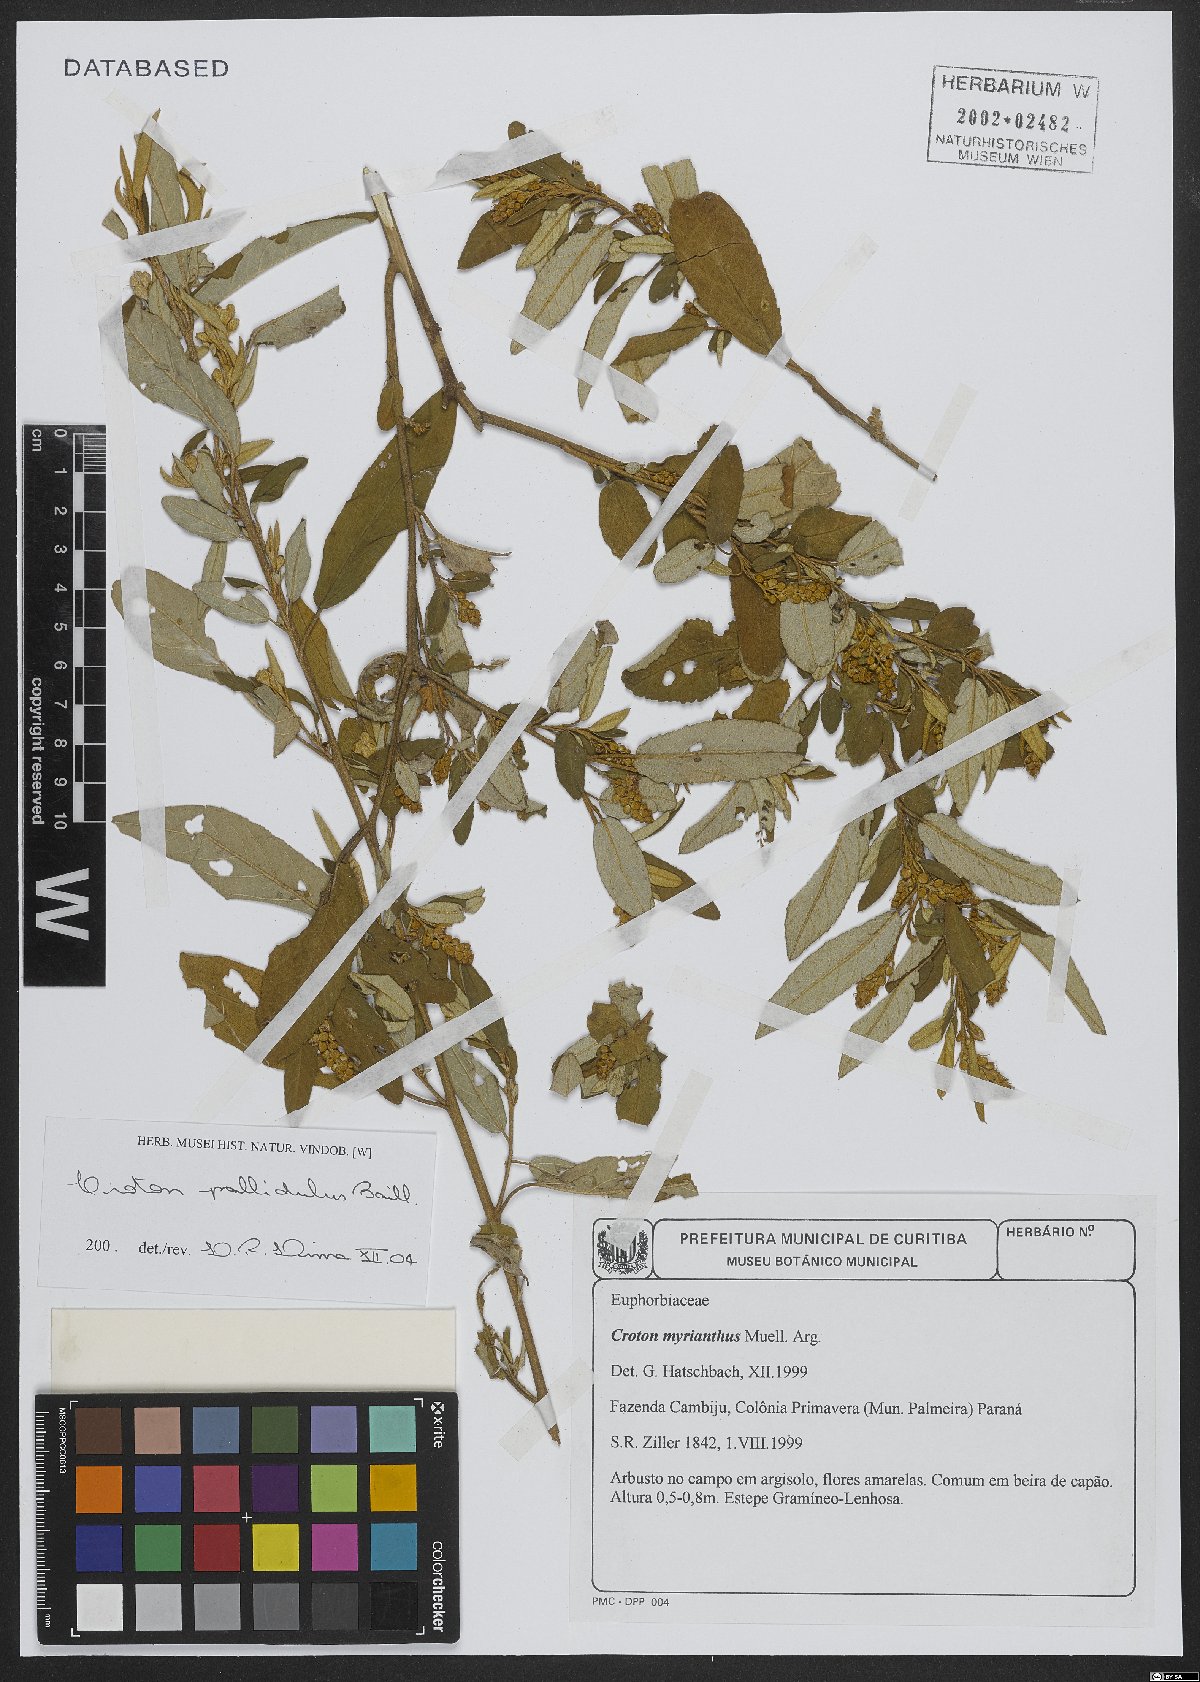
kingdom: Plantae
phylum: Tracheophyta
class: Magnoliopsida
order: Malpighiales
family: Euphorbiaceae
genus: Croton
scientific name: Croton ceanothifolius
